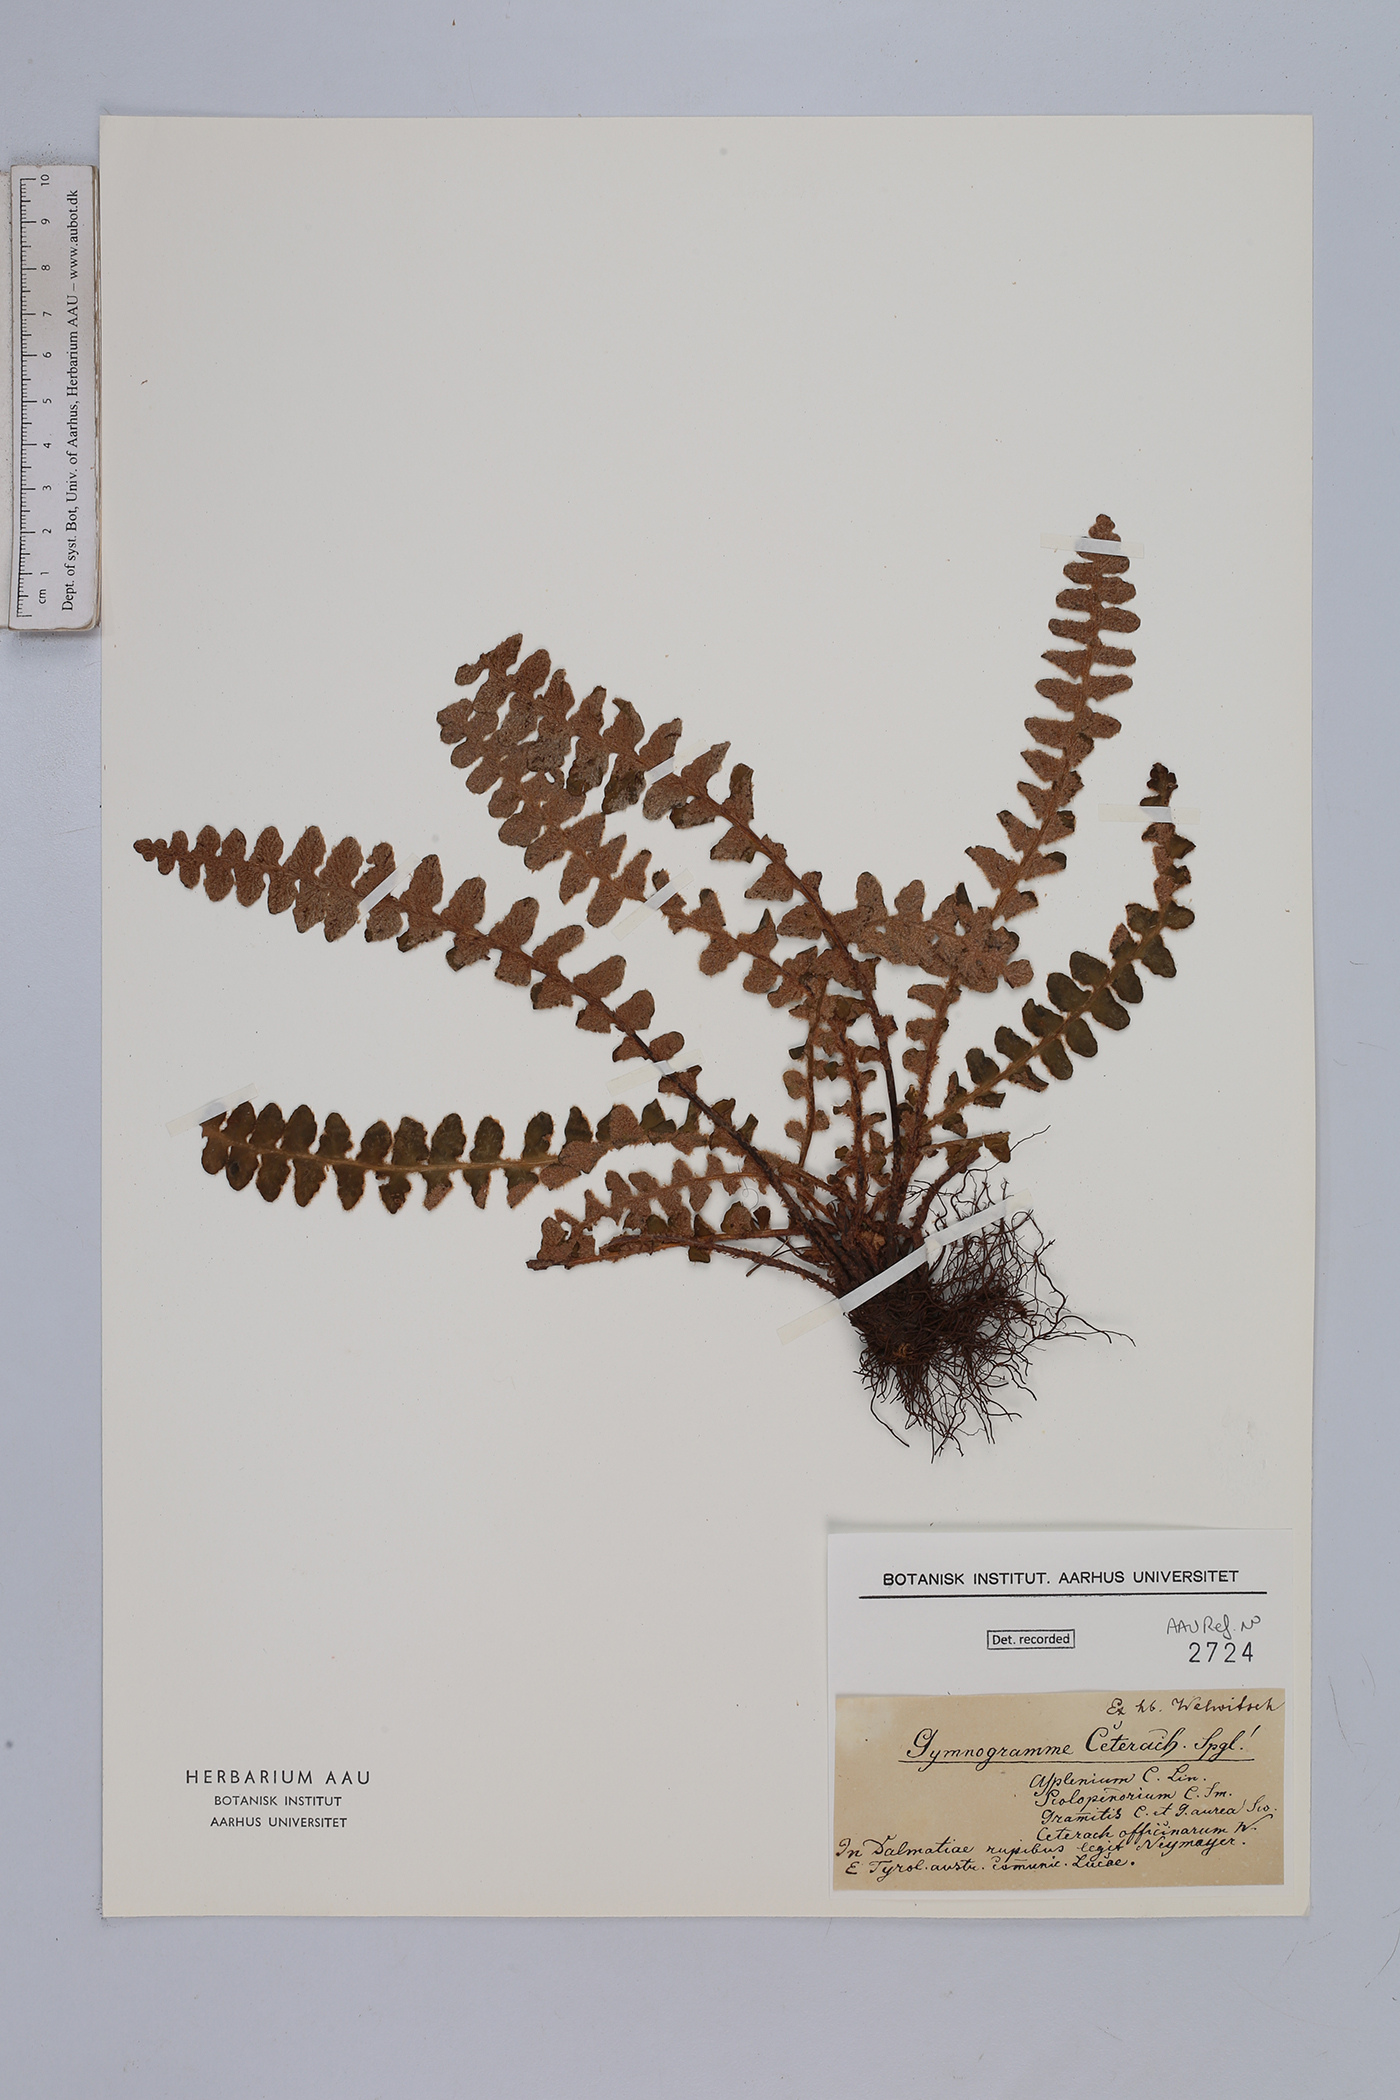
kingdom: Plantae
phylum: Tracheophyta
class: Polypodiopsida
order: Polypodiales
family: Aspleniaceae
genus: Asplenium
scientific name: Asplenium ceterach
